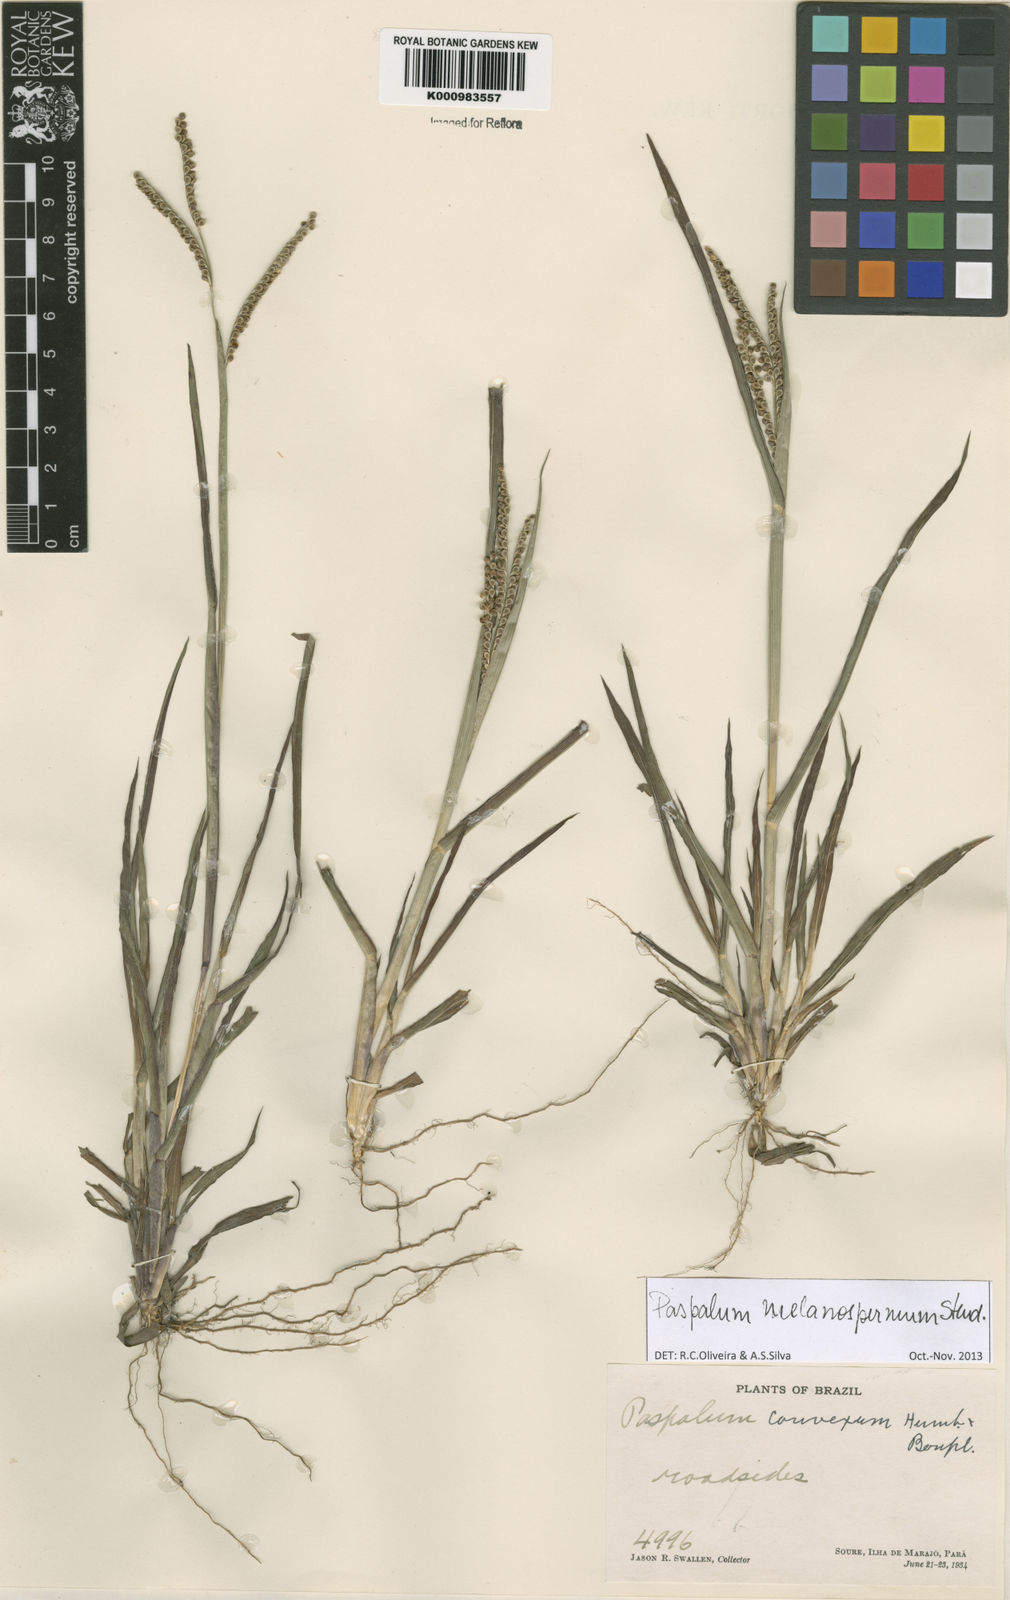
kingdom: Plantae
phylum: Tracheophyta
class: Liliopsida
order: Poales
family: Poaceae
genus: Paspalum
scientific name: Paspalum melanospermum
